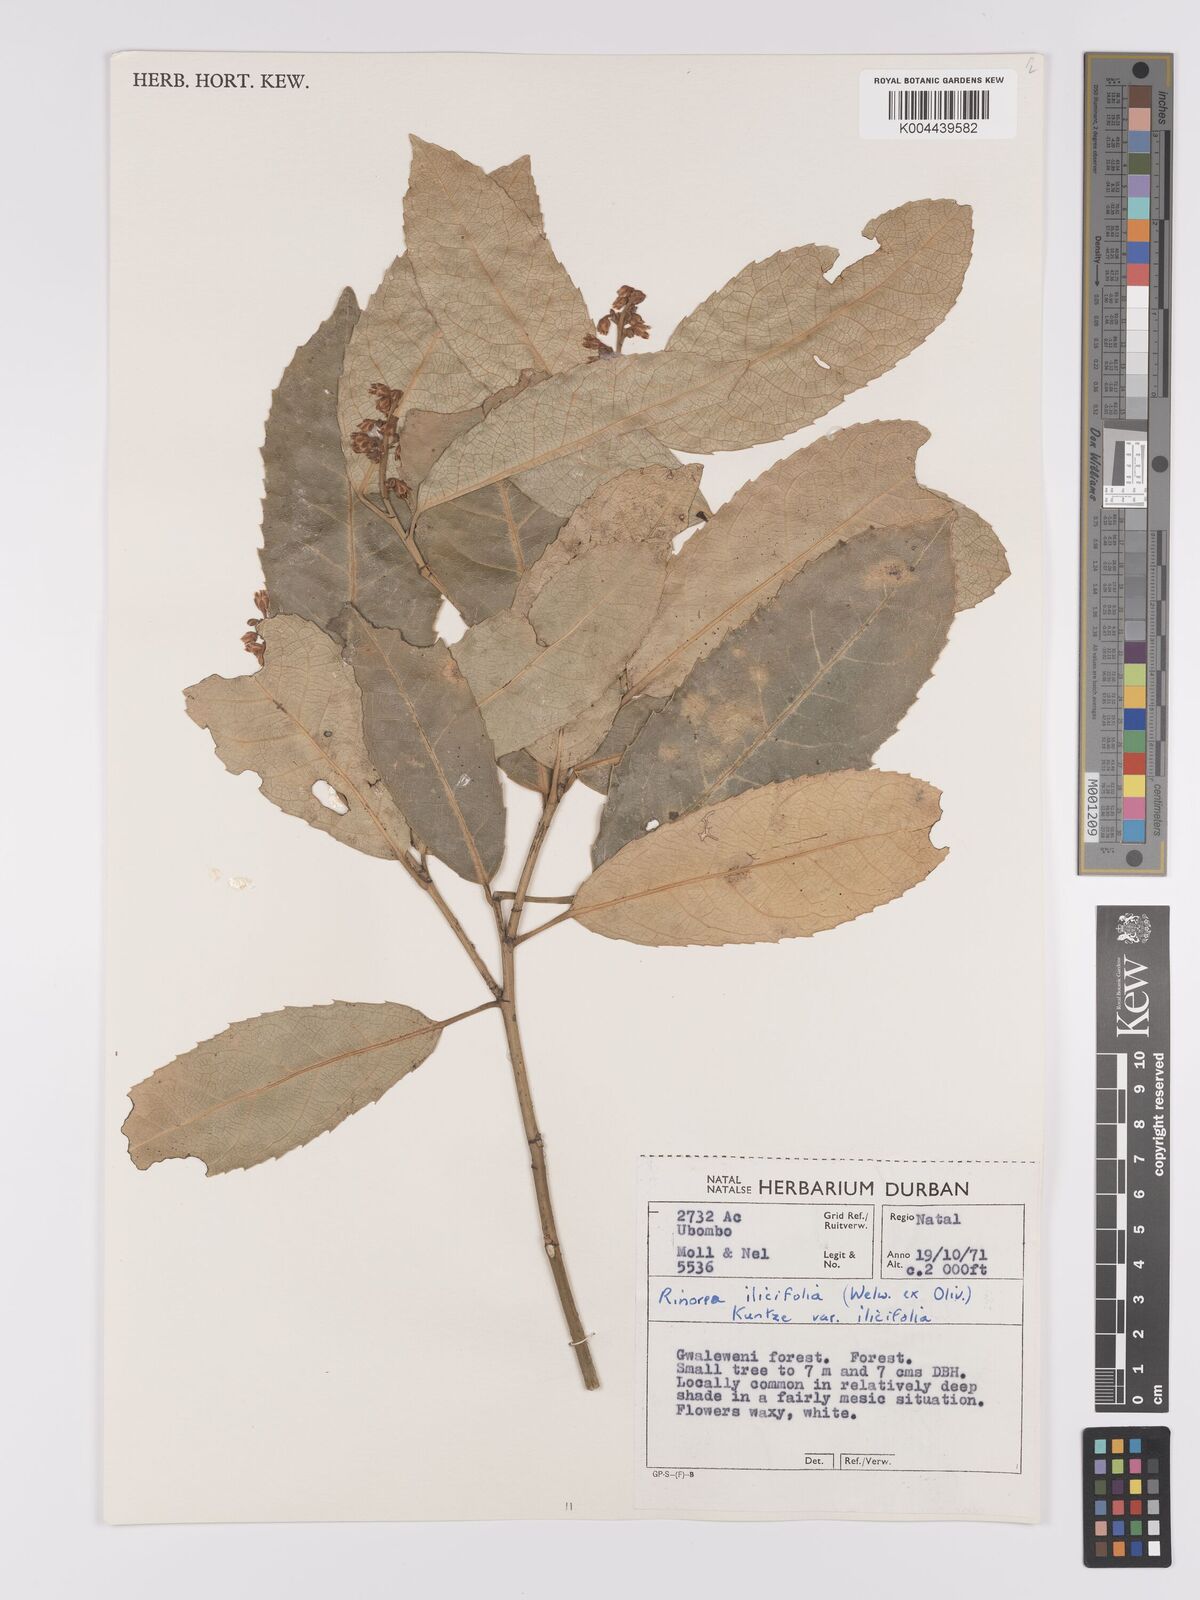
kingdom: Plantae
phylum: Tracheophyta
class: Magnoliopsida
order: Malpighiales
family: Violaceae
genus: Rinorea
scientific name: Rinorea ilicifolia
